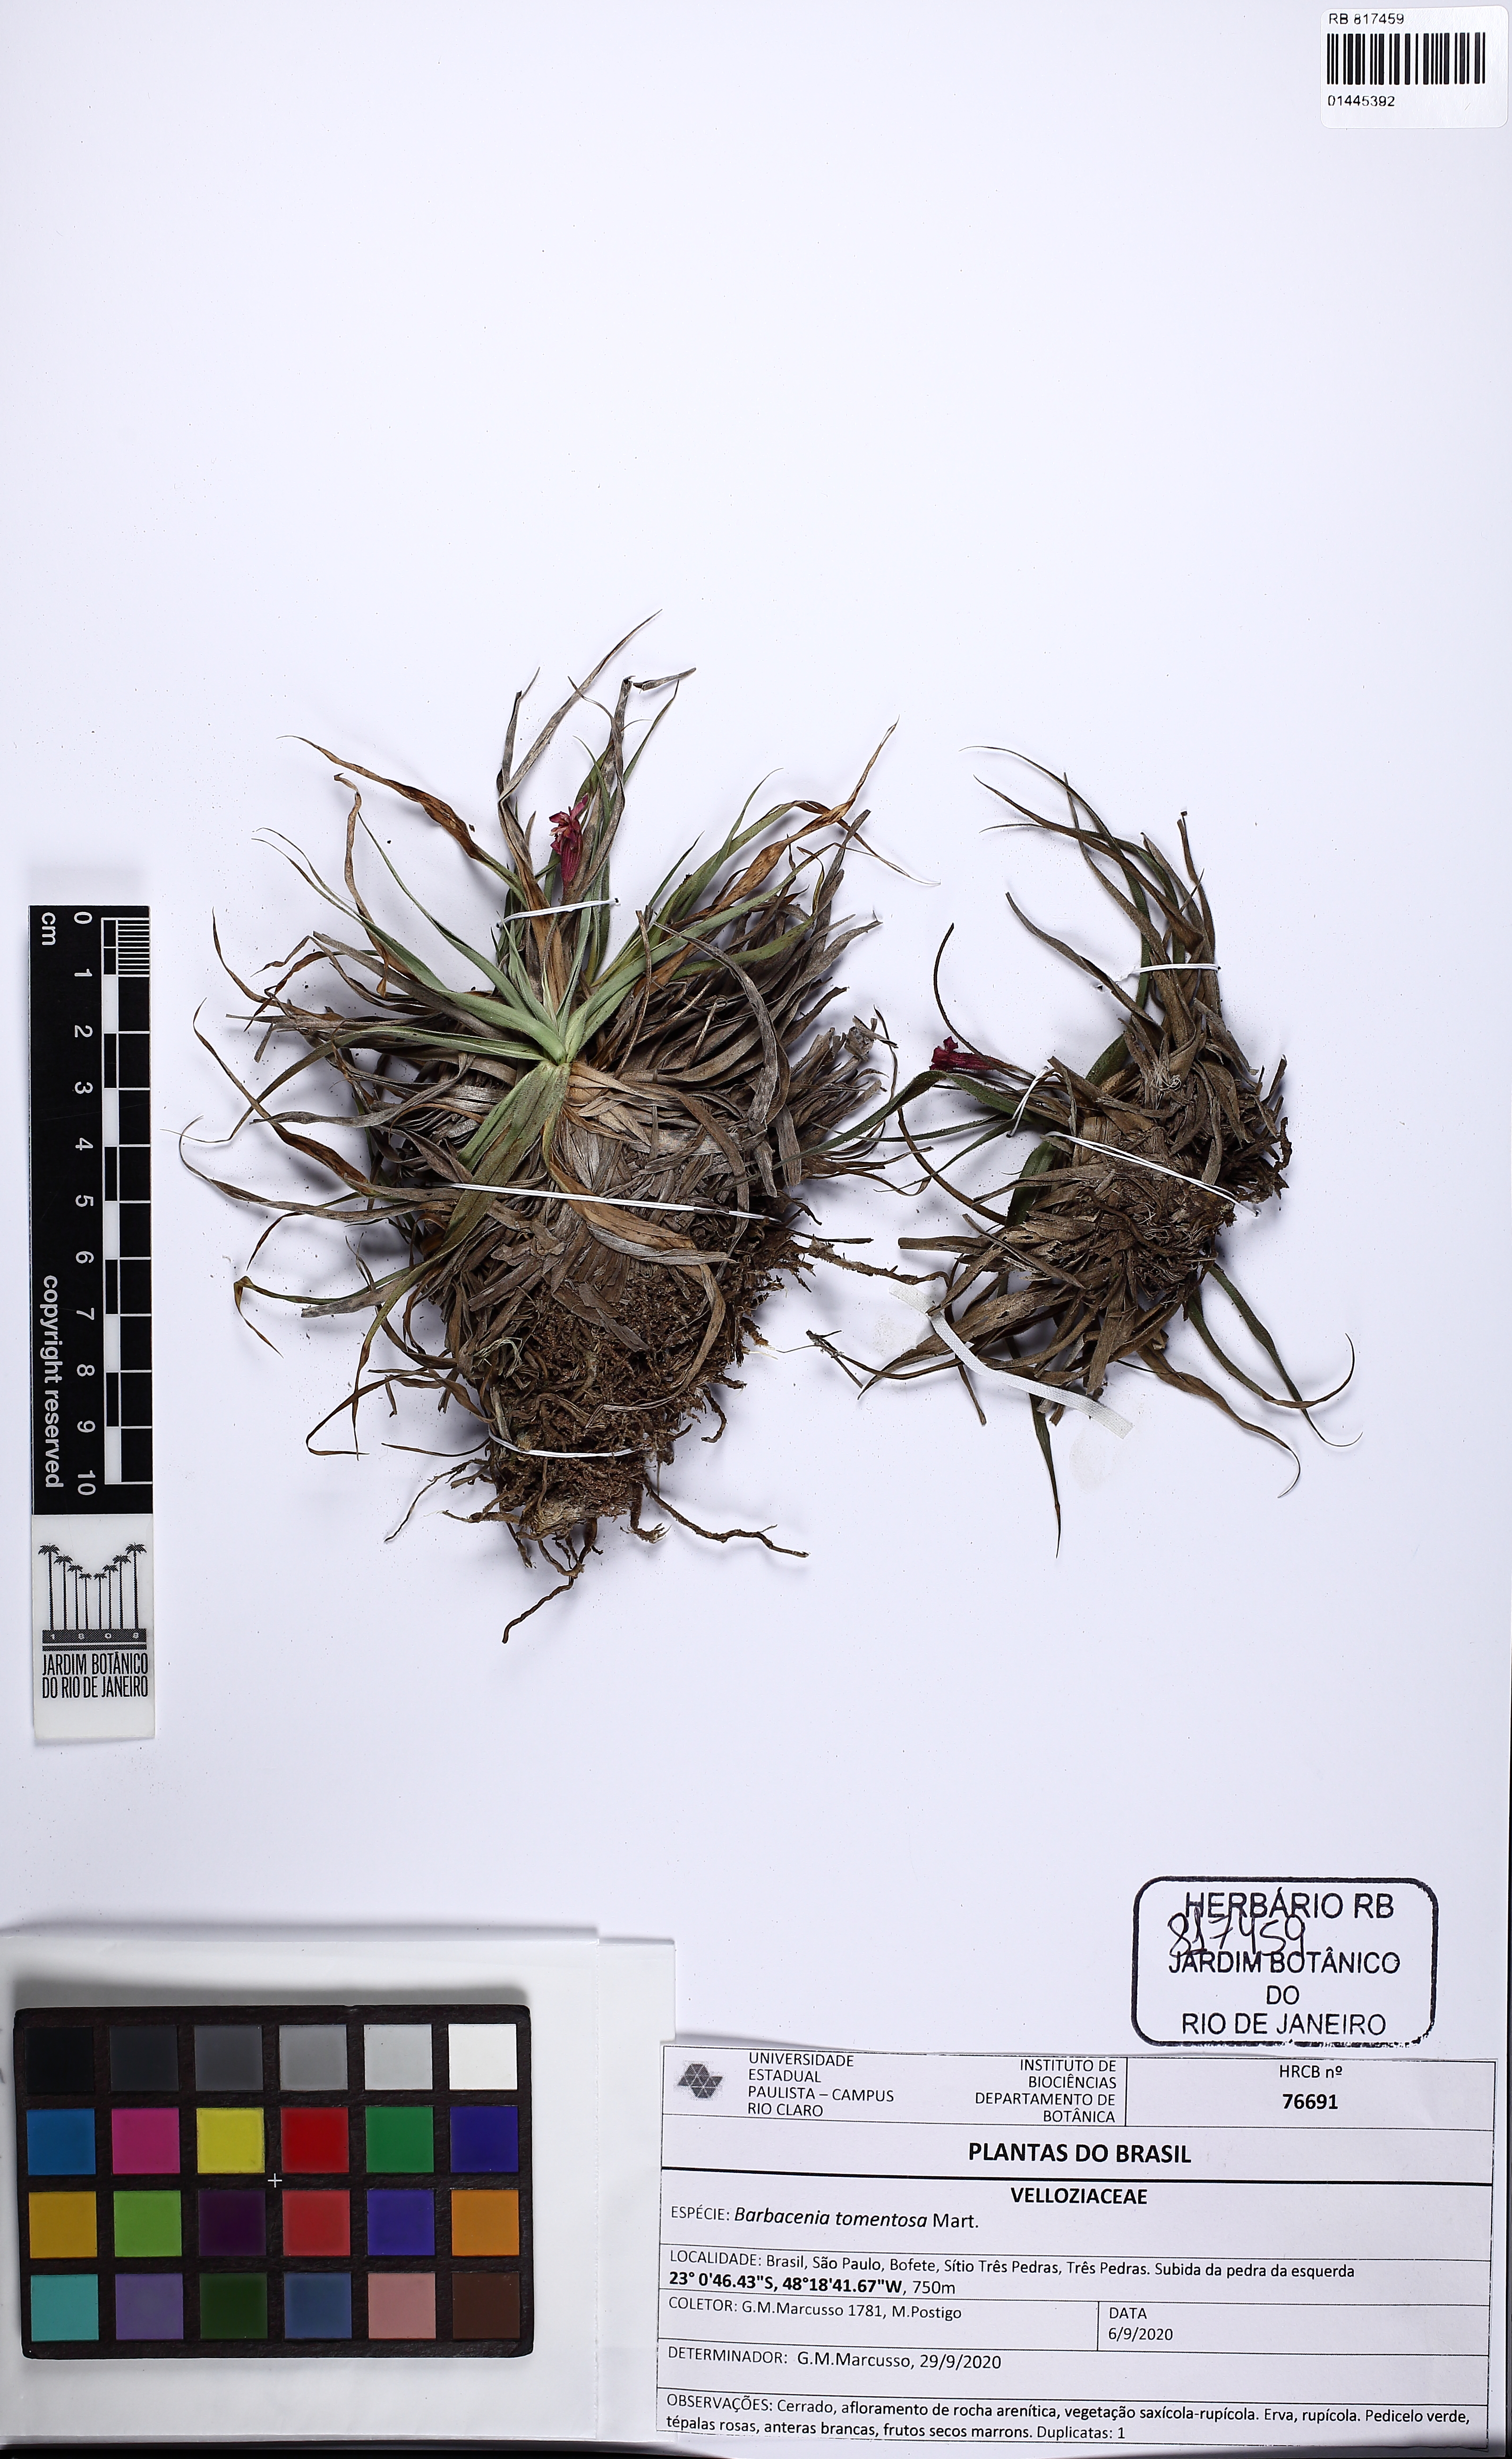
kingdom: Plantae
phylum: Tracheophyta
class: Liliopsida
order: Pandanales
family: Velloziaceae
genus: Barbacenia
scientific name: Barbacenia tomentosa
